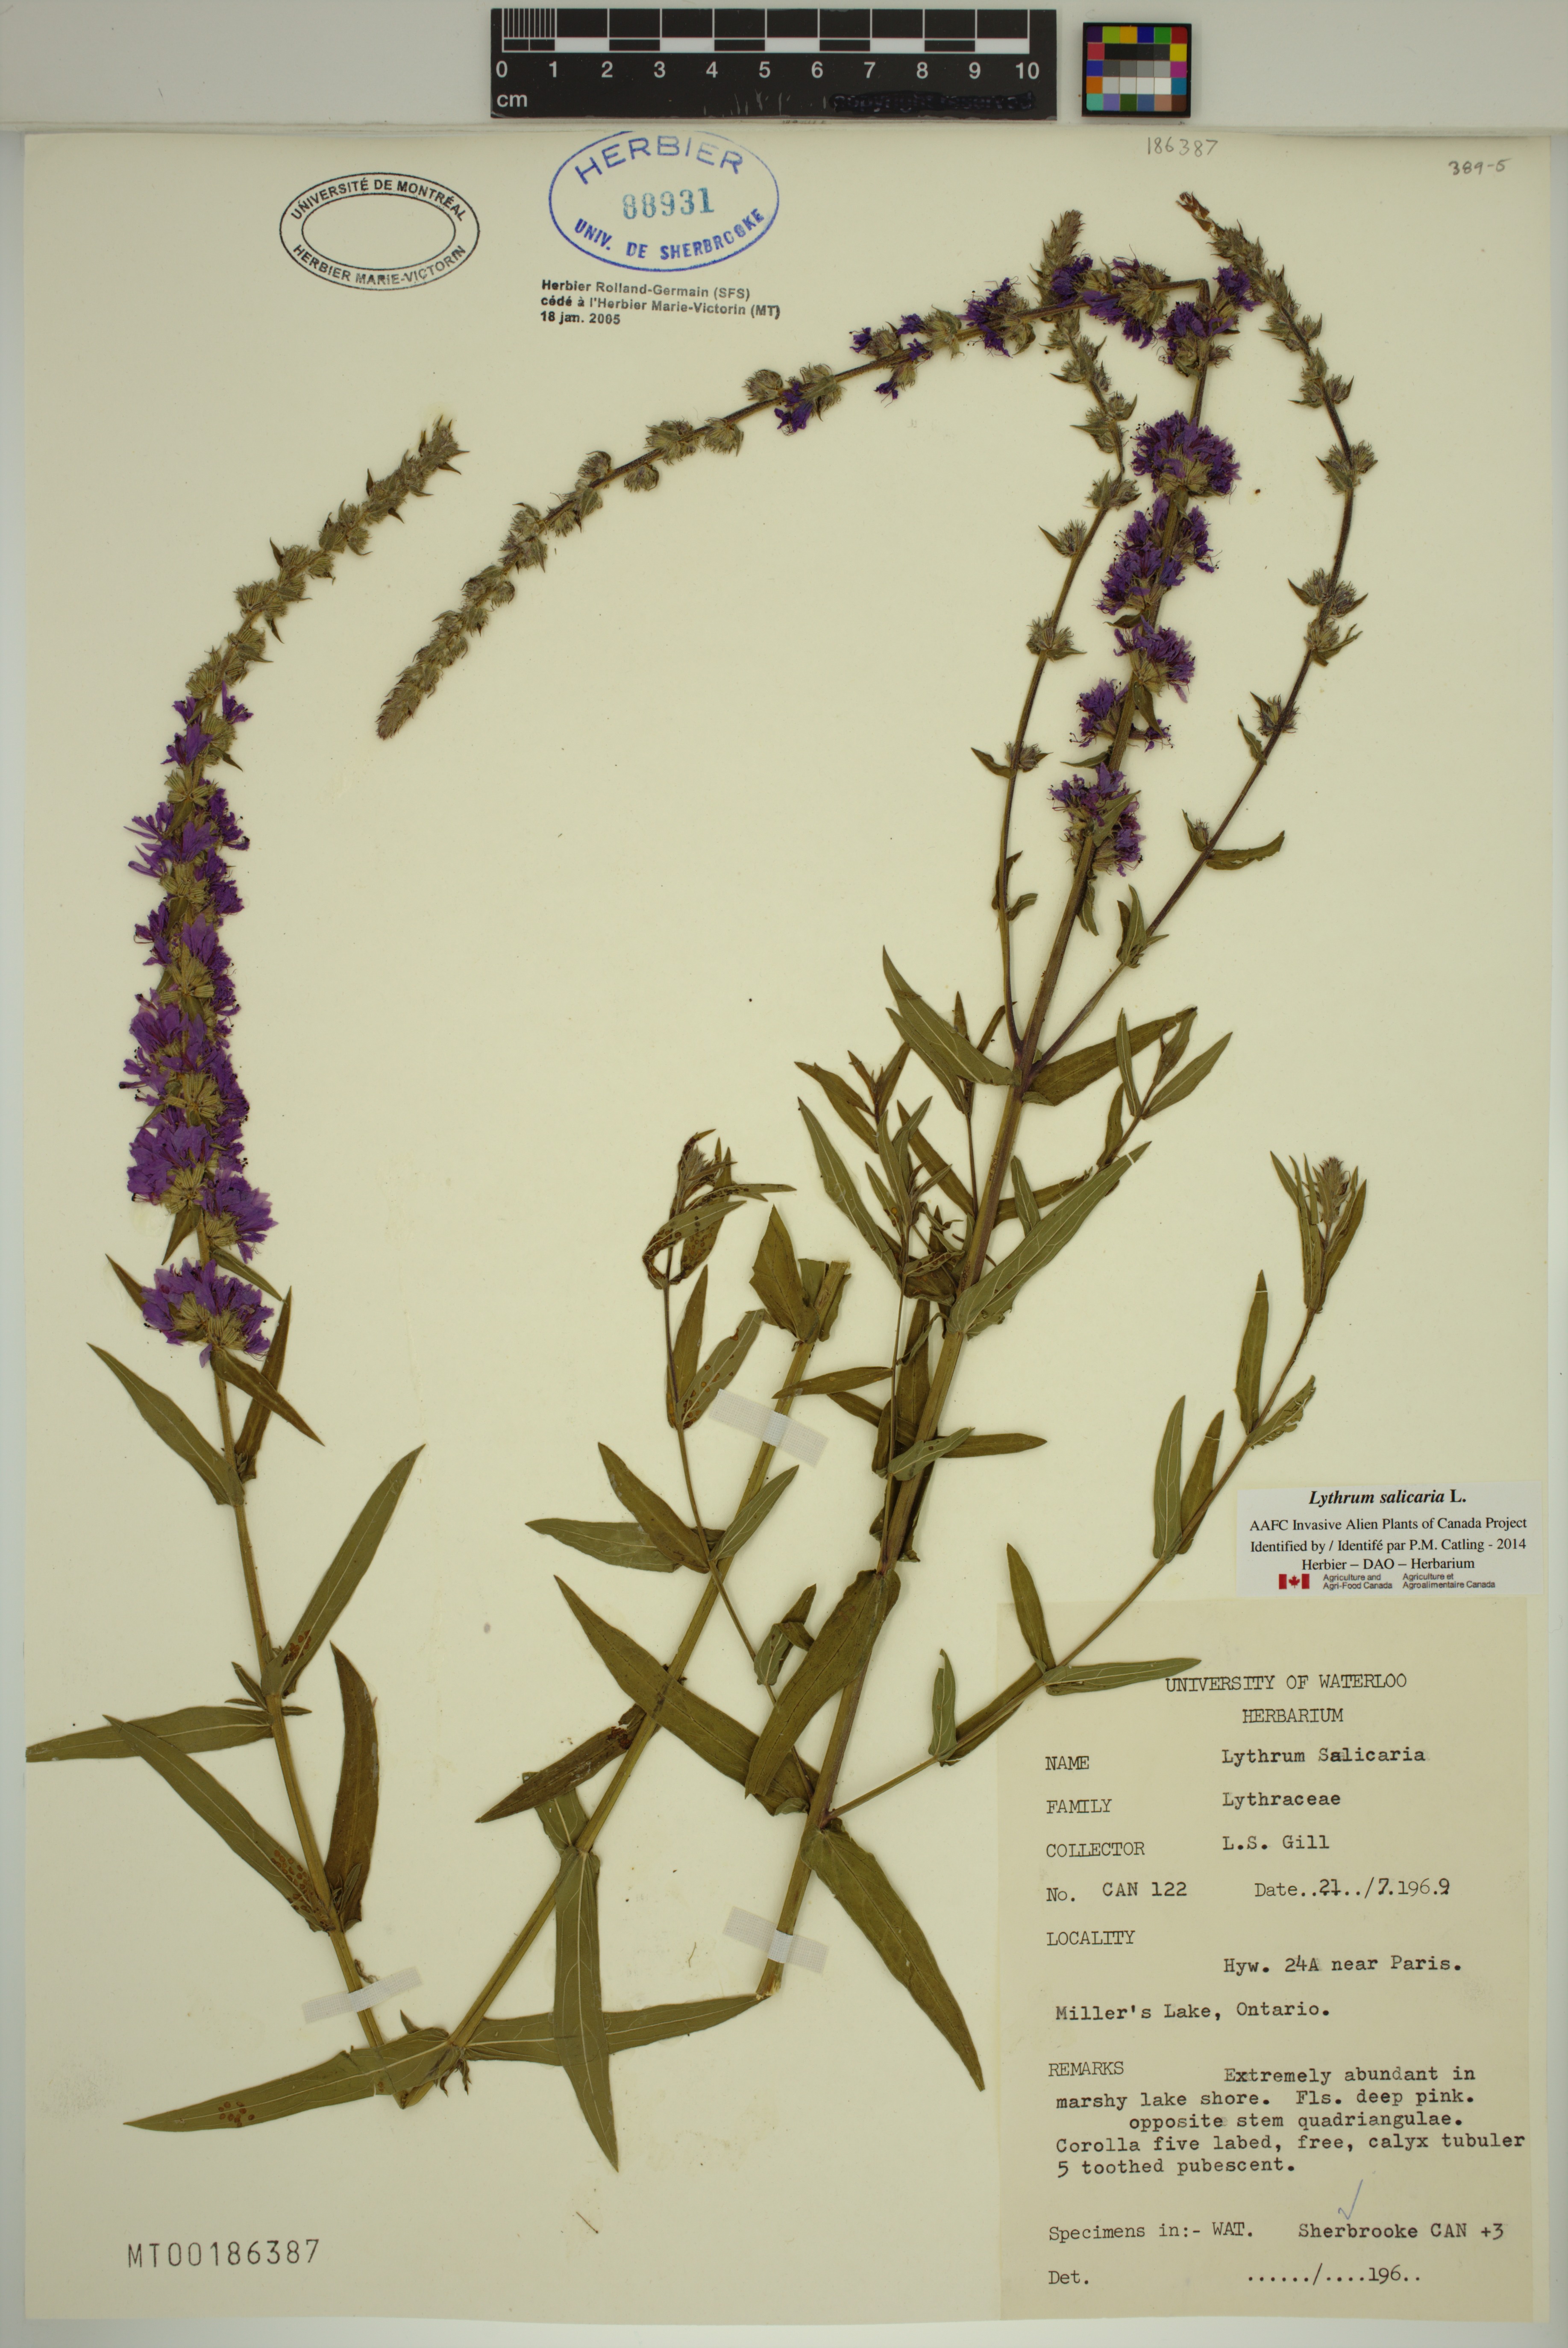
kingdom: Plantae
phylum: Tracheophyta
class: Magnoliopsida
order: Myrtales
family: Lythraceae
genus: Lythrum
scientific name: Lythrum salicaria
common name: Purple loosestrife
